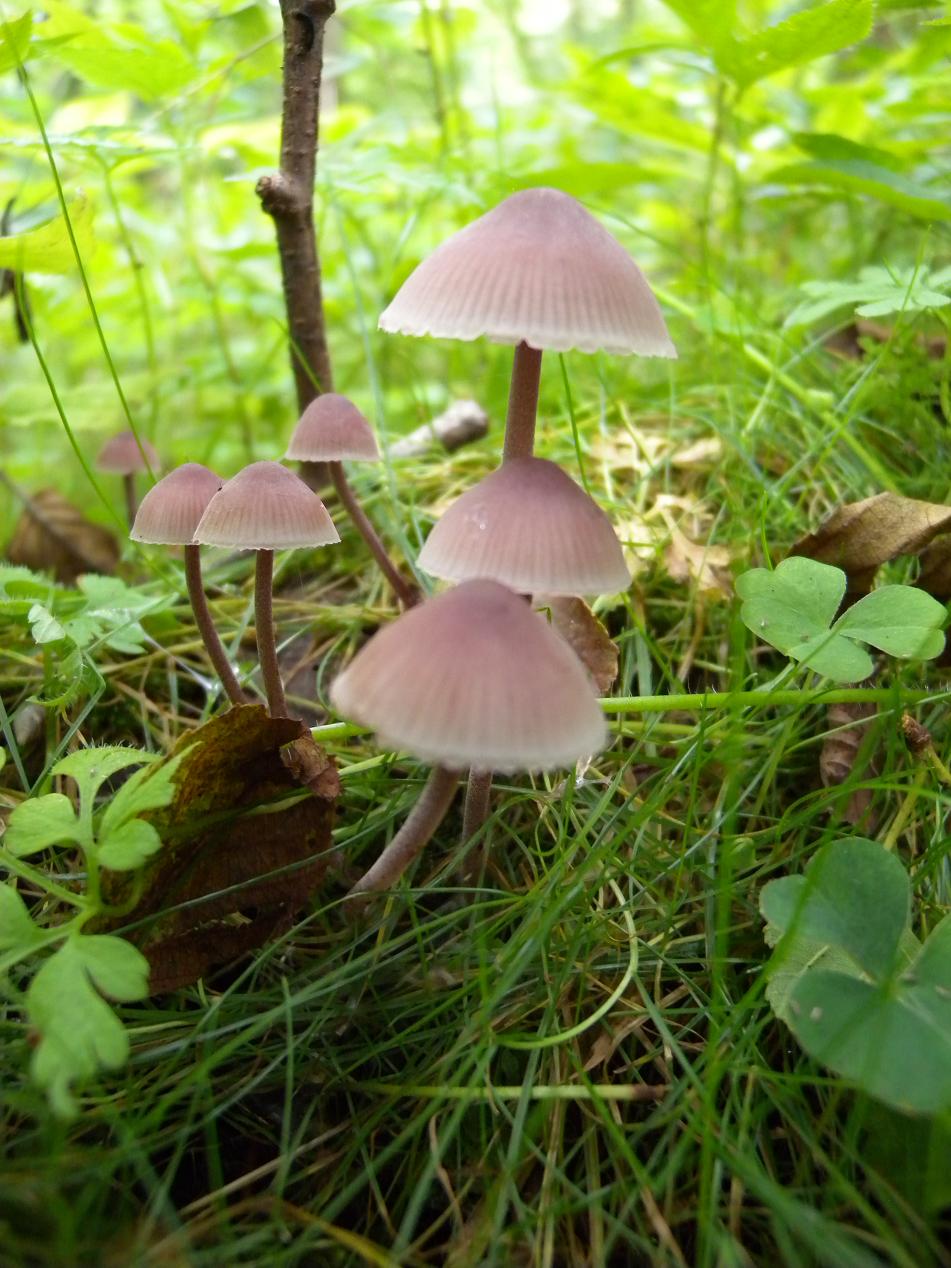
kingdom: Fungi
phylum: Basidiomycota
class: Agaricomycetes
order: Agaricales
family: Mycenaceae
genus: Mycena
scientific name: Mycena haematopus
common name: blødende huesvamp
